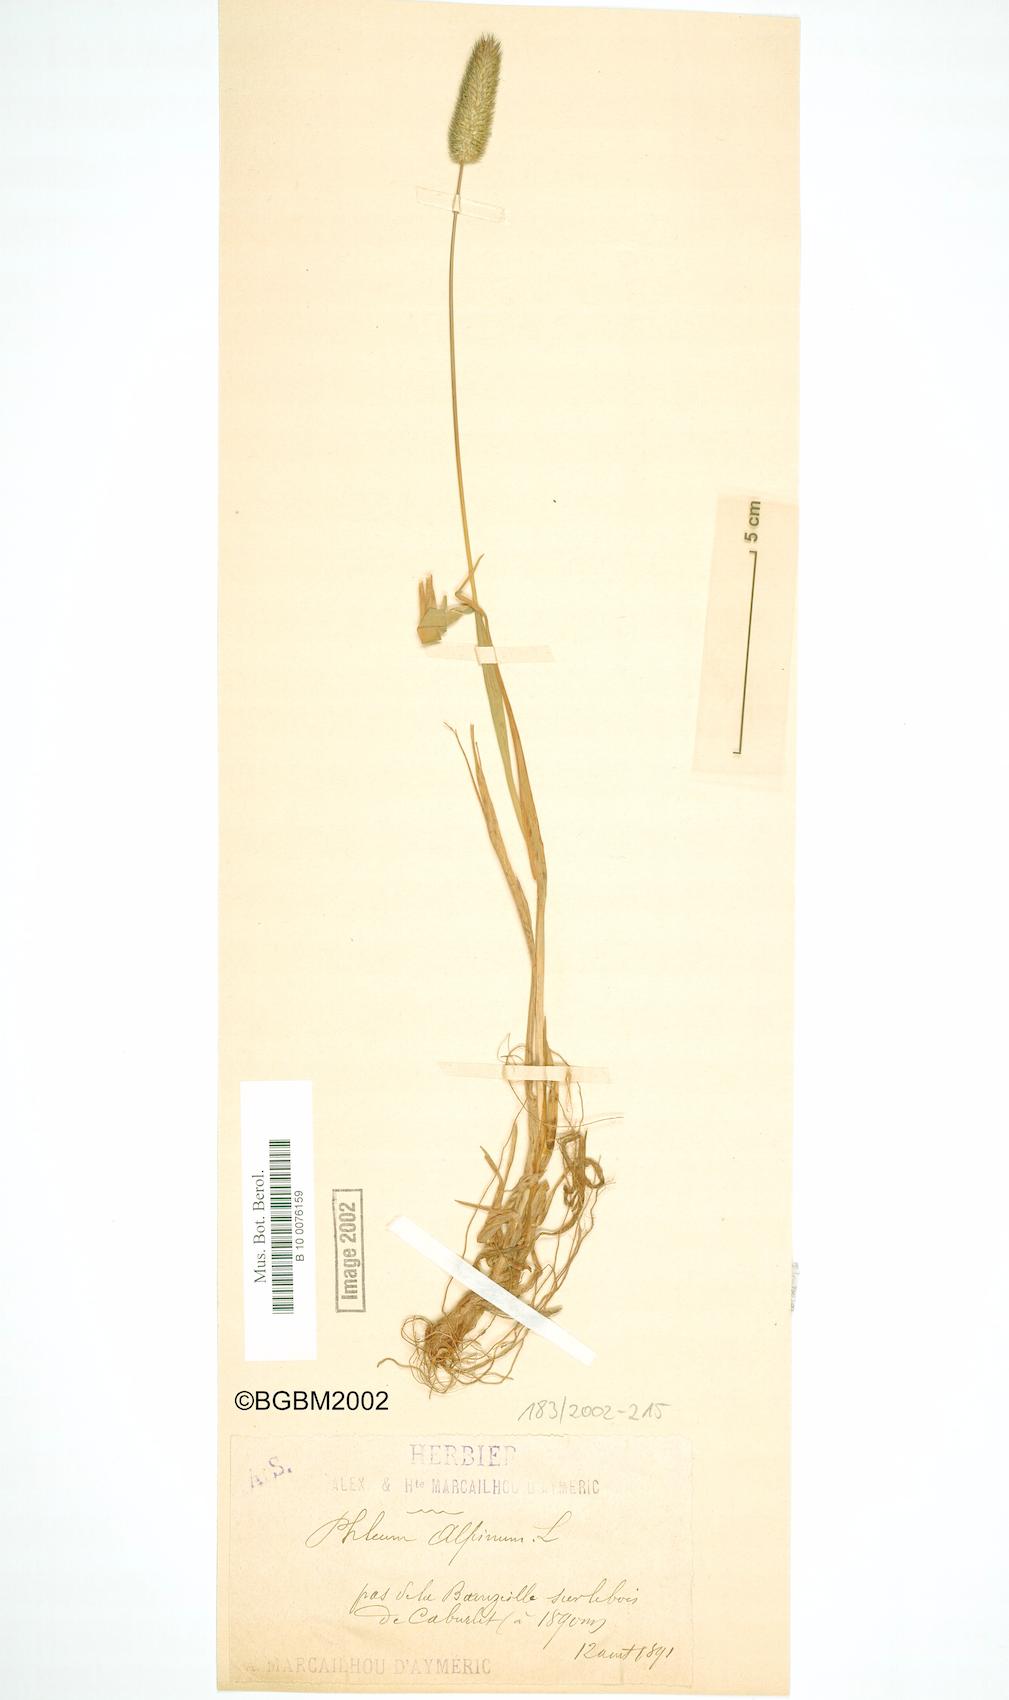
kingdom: Plantae
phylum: Tracheophyta
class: Liliopsida
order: Poales
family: Poaceae
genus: Phleum
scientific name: Phleum alpinum
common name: Alpine cat's-tail
